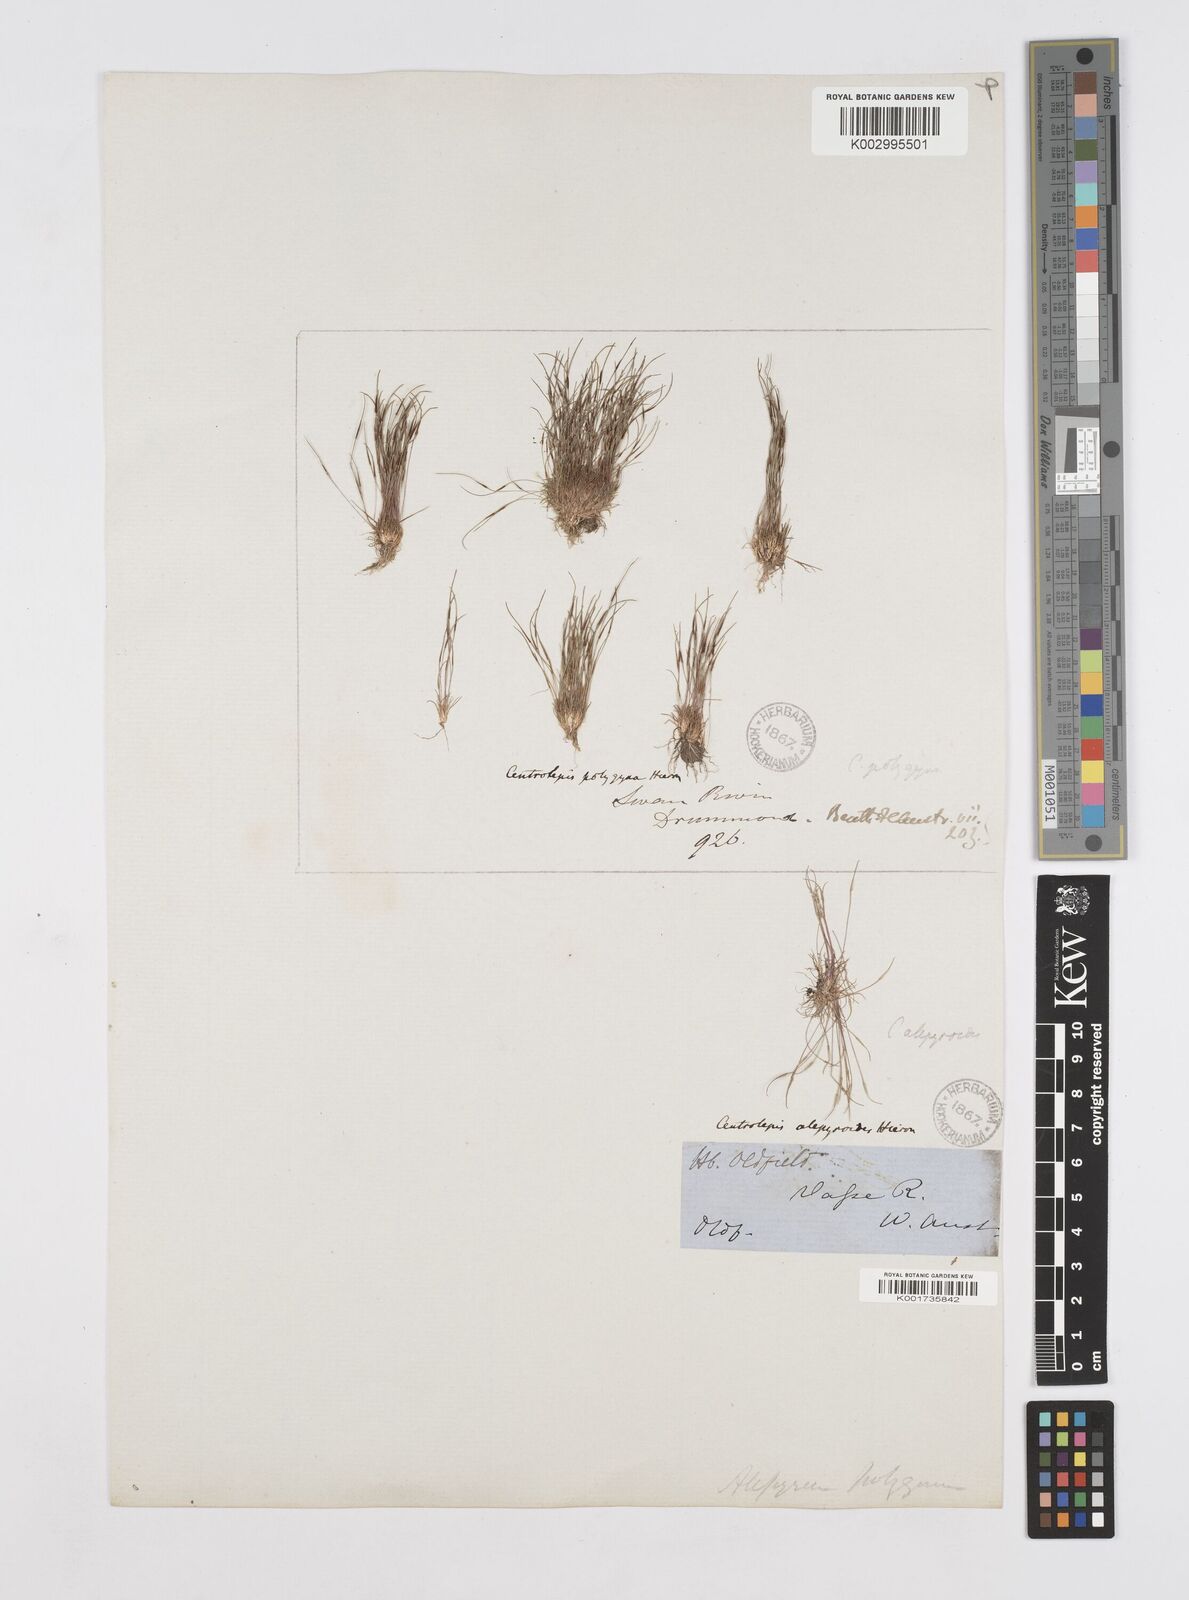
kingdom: Plantae
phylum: Tracheophyta
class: Liliopsida
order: Poales
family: Restionaceae
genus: Centrolepis
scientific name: Centrolepis polygyna
